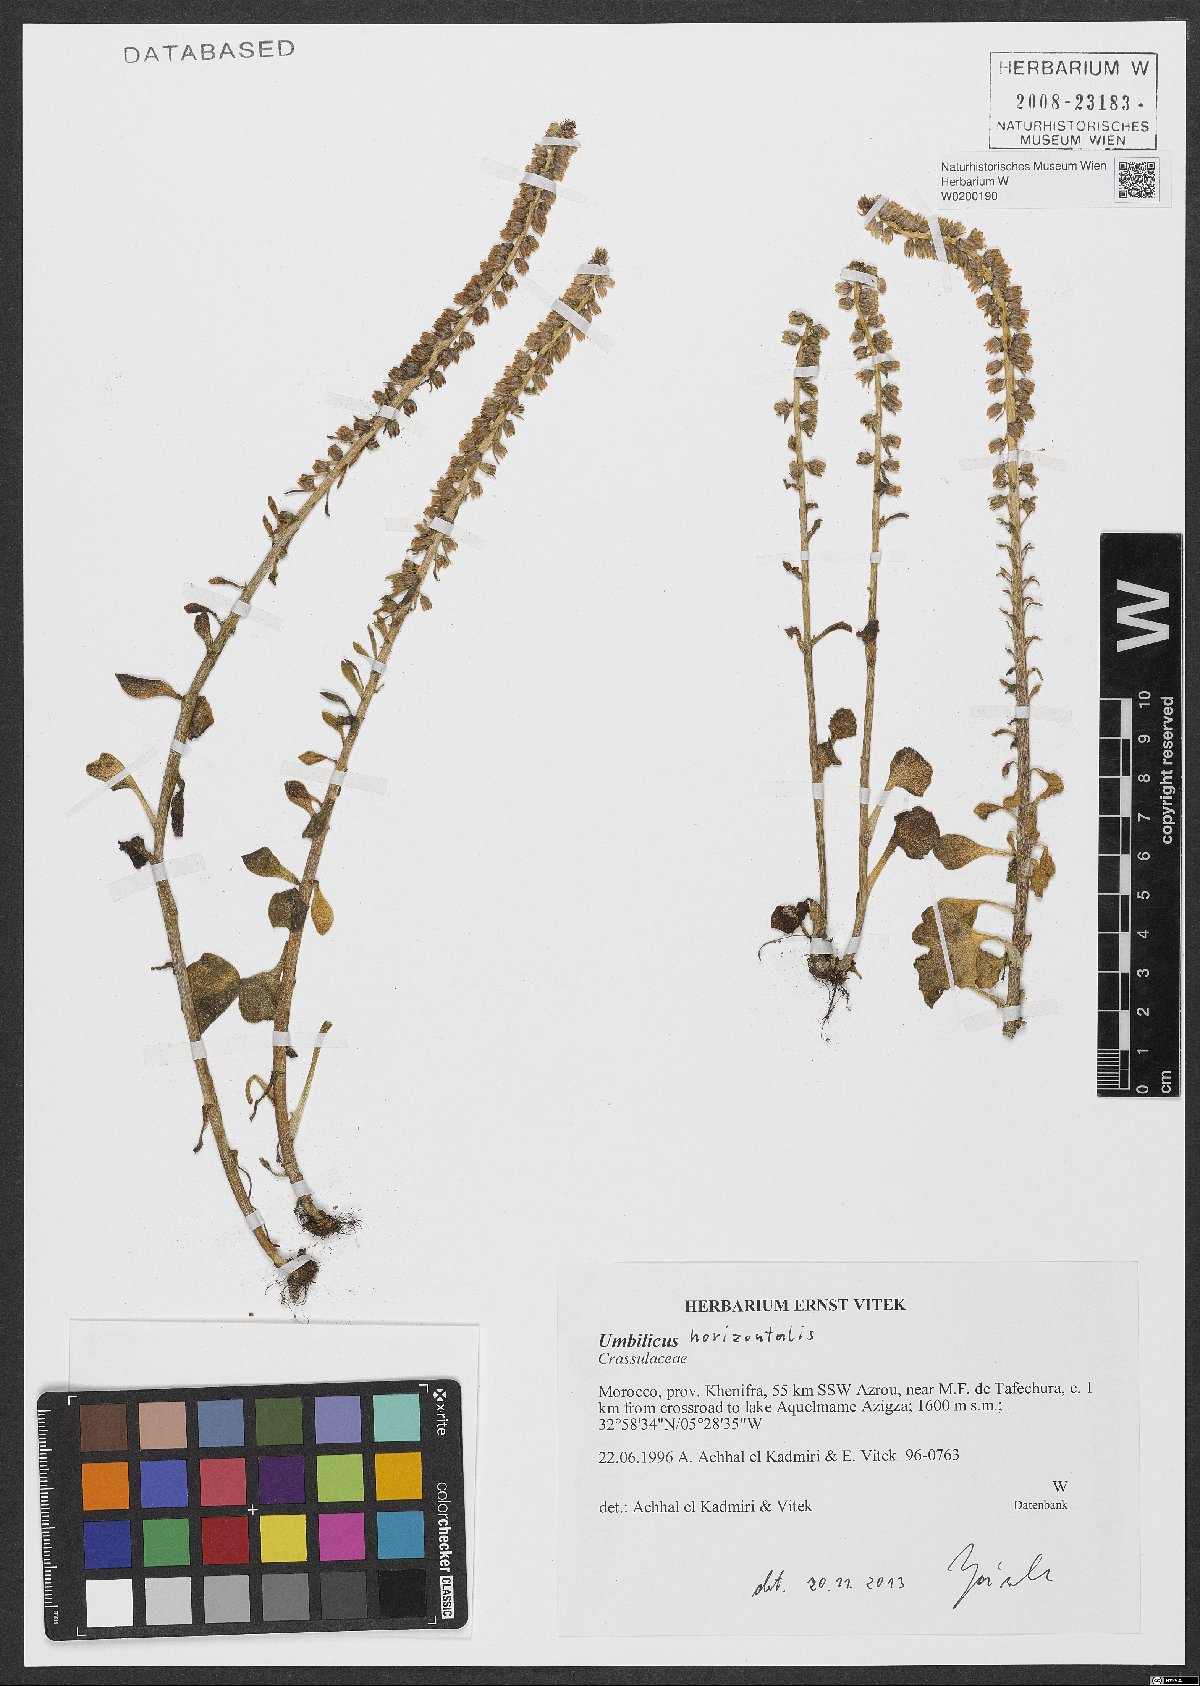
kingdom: Plantae
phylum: Tracheophyta
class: Magnoliopsida
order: Saxifragales
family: Crassulaceae
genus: Umbilicus
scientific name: Umbilicus horizontalis
